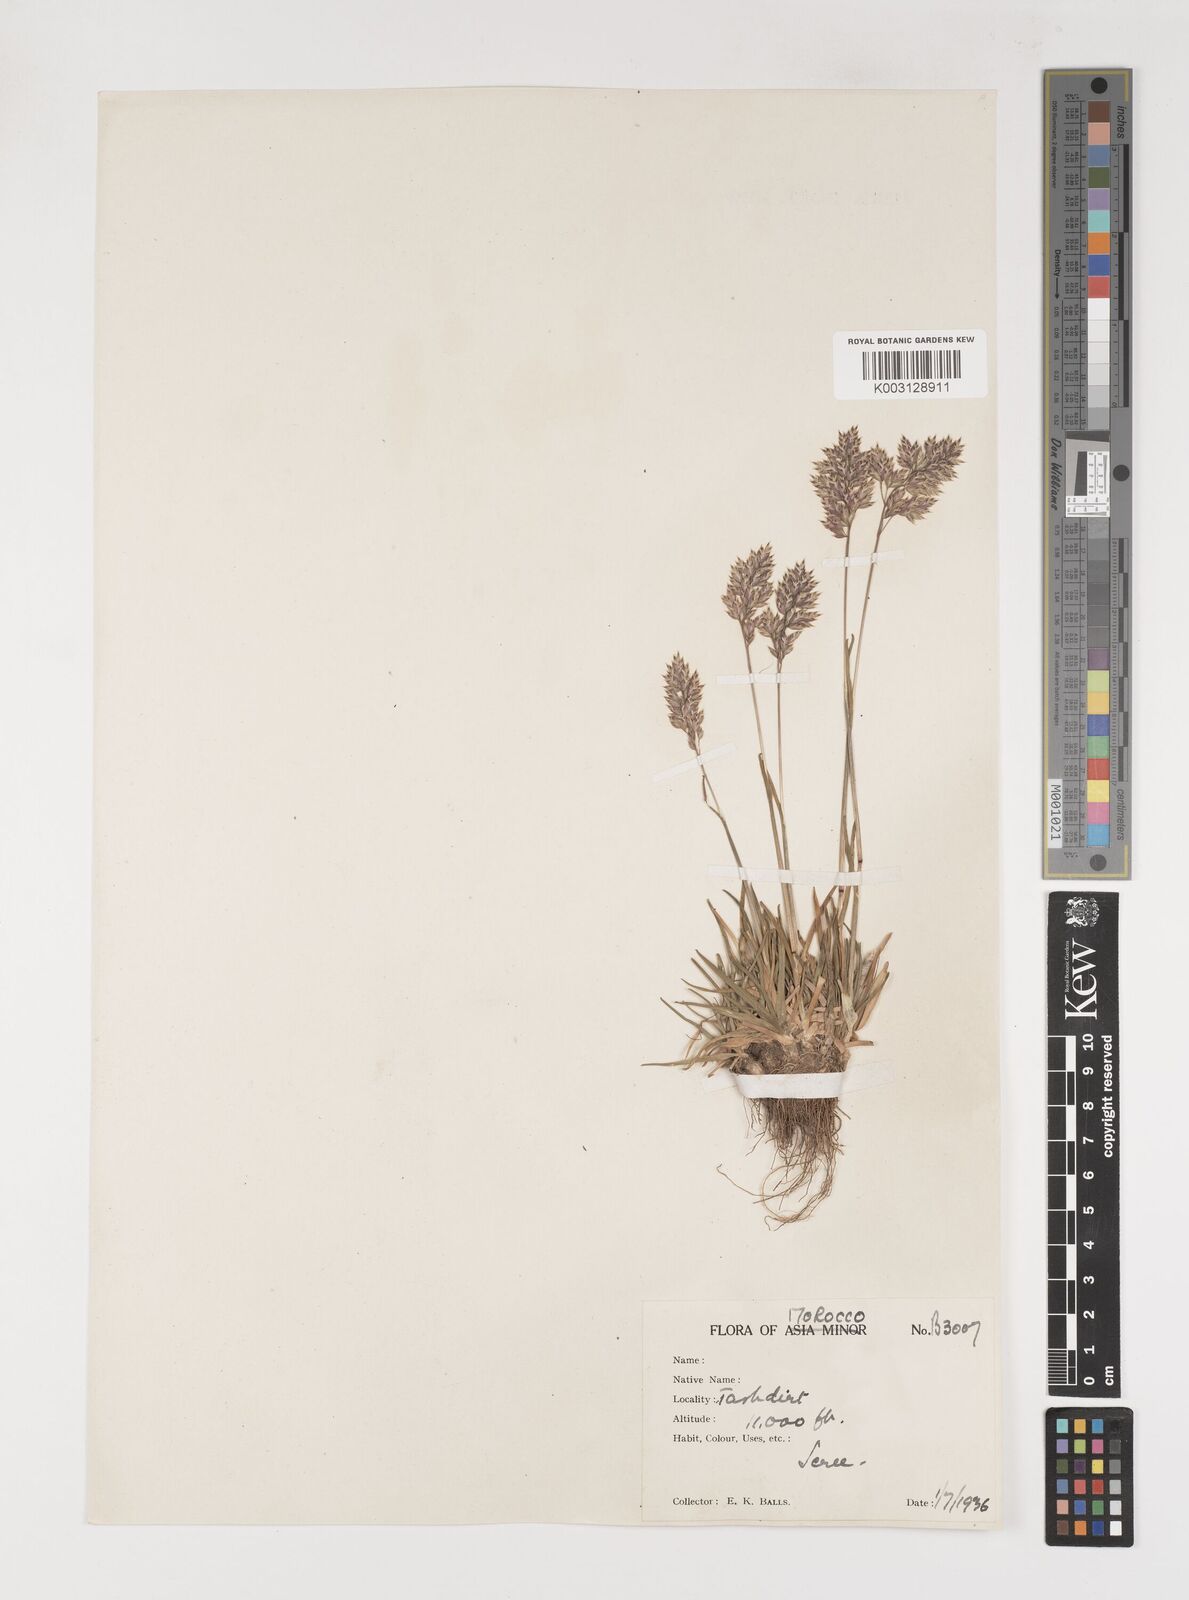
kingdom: Plantae
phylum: Tracheophyta
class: Liliopsida
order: Poales
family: Poaceae
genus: Poa
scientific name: Poa bulbosa
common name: Bulbous bluegrass
